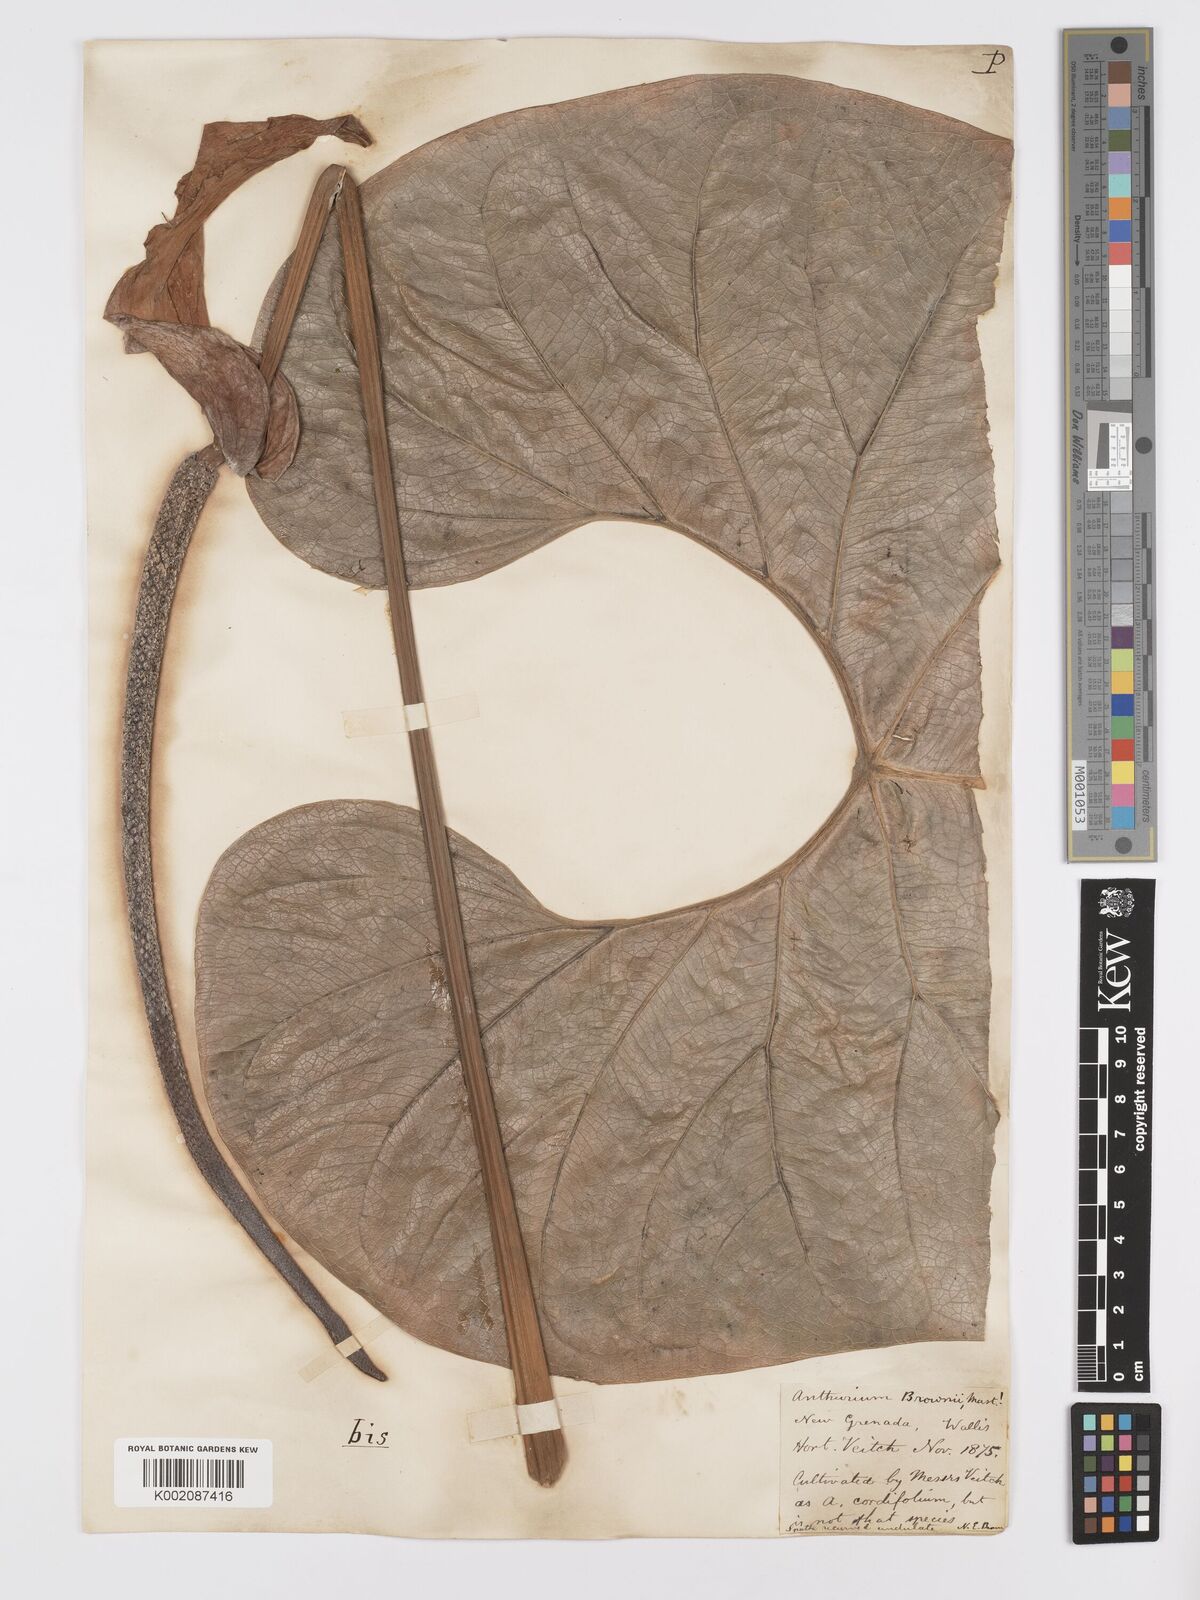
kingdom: Plantae
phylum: Tracheophyta
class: Liliopsida
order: Alismatales
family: Araceae
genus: Anthurium
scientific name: Anthurium brownii
